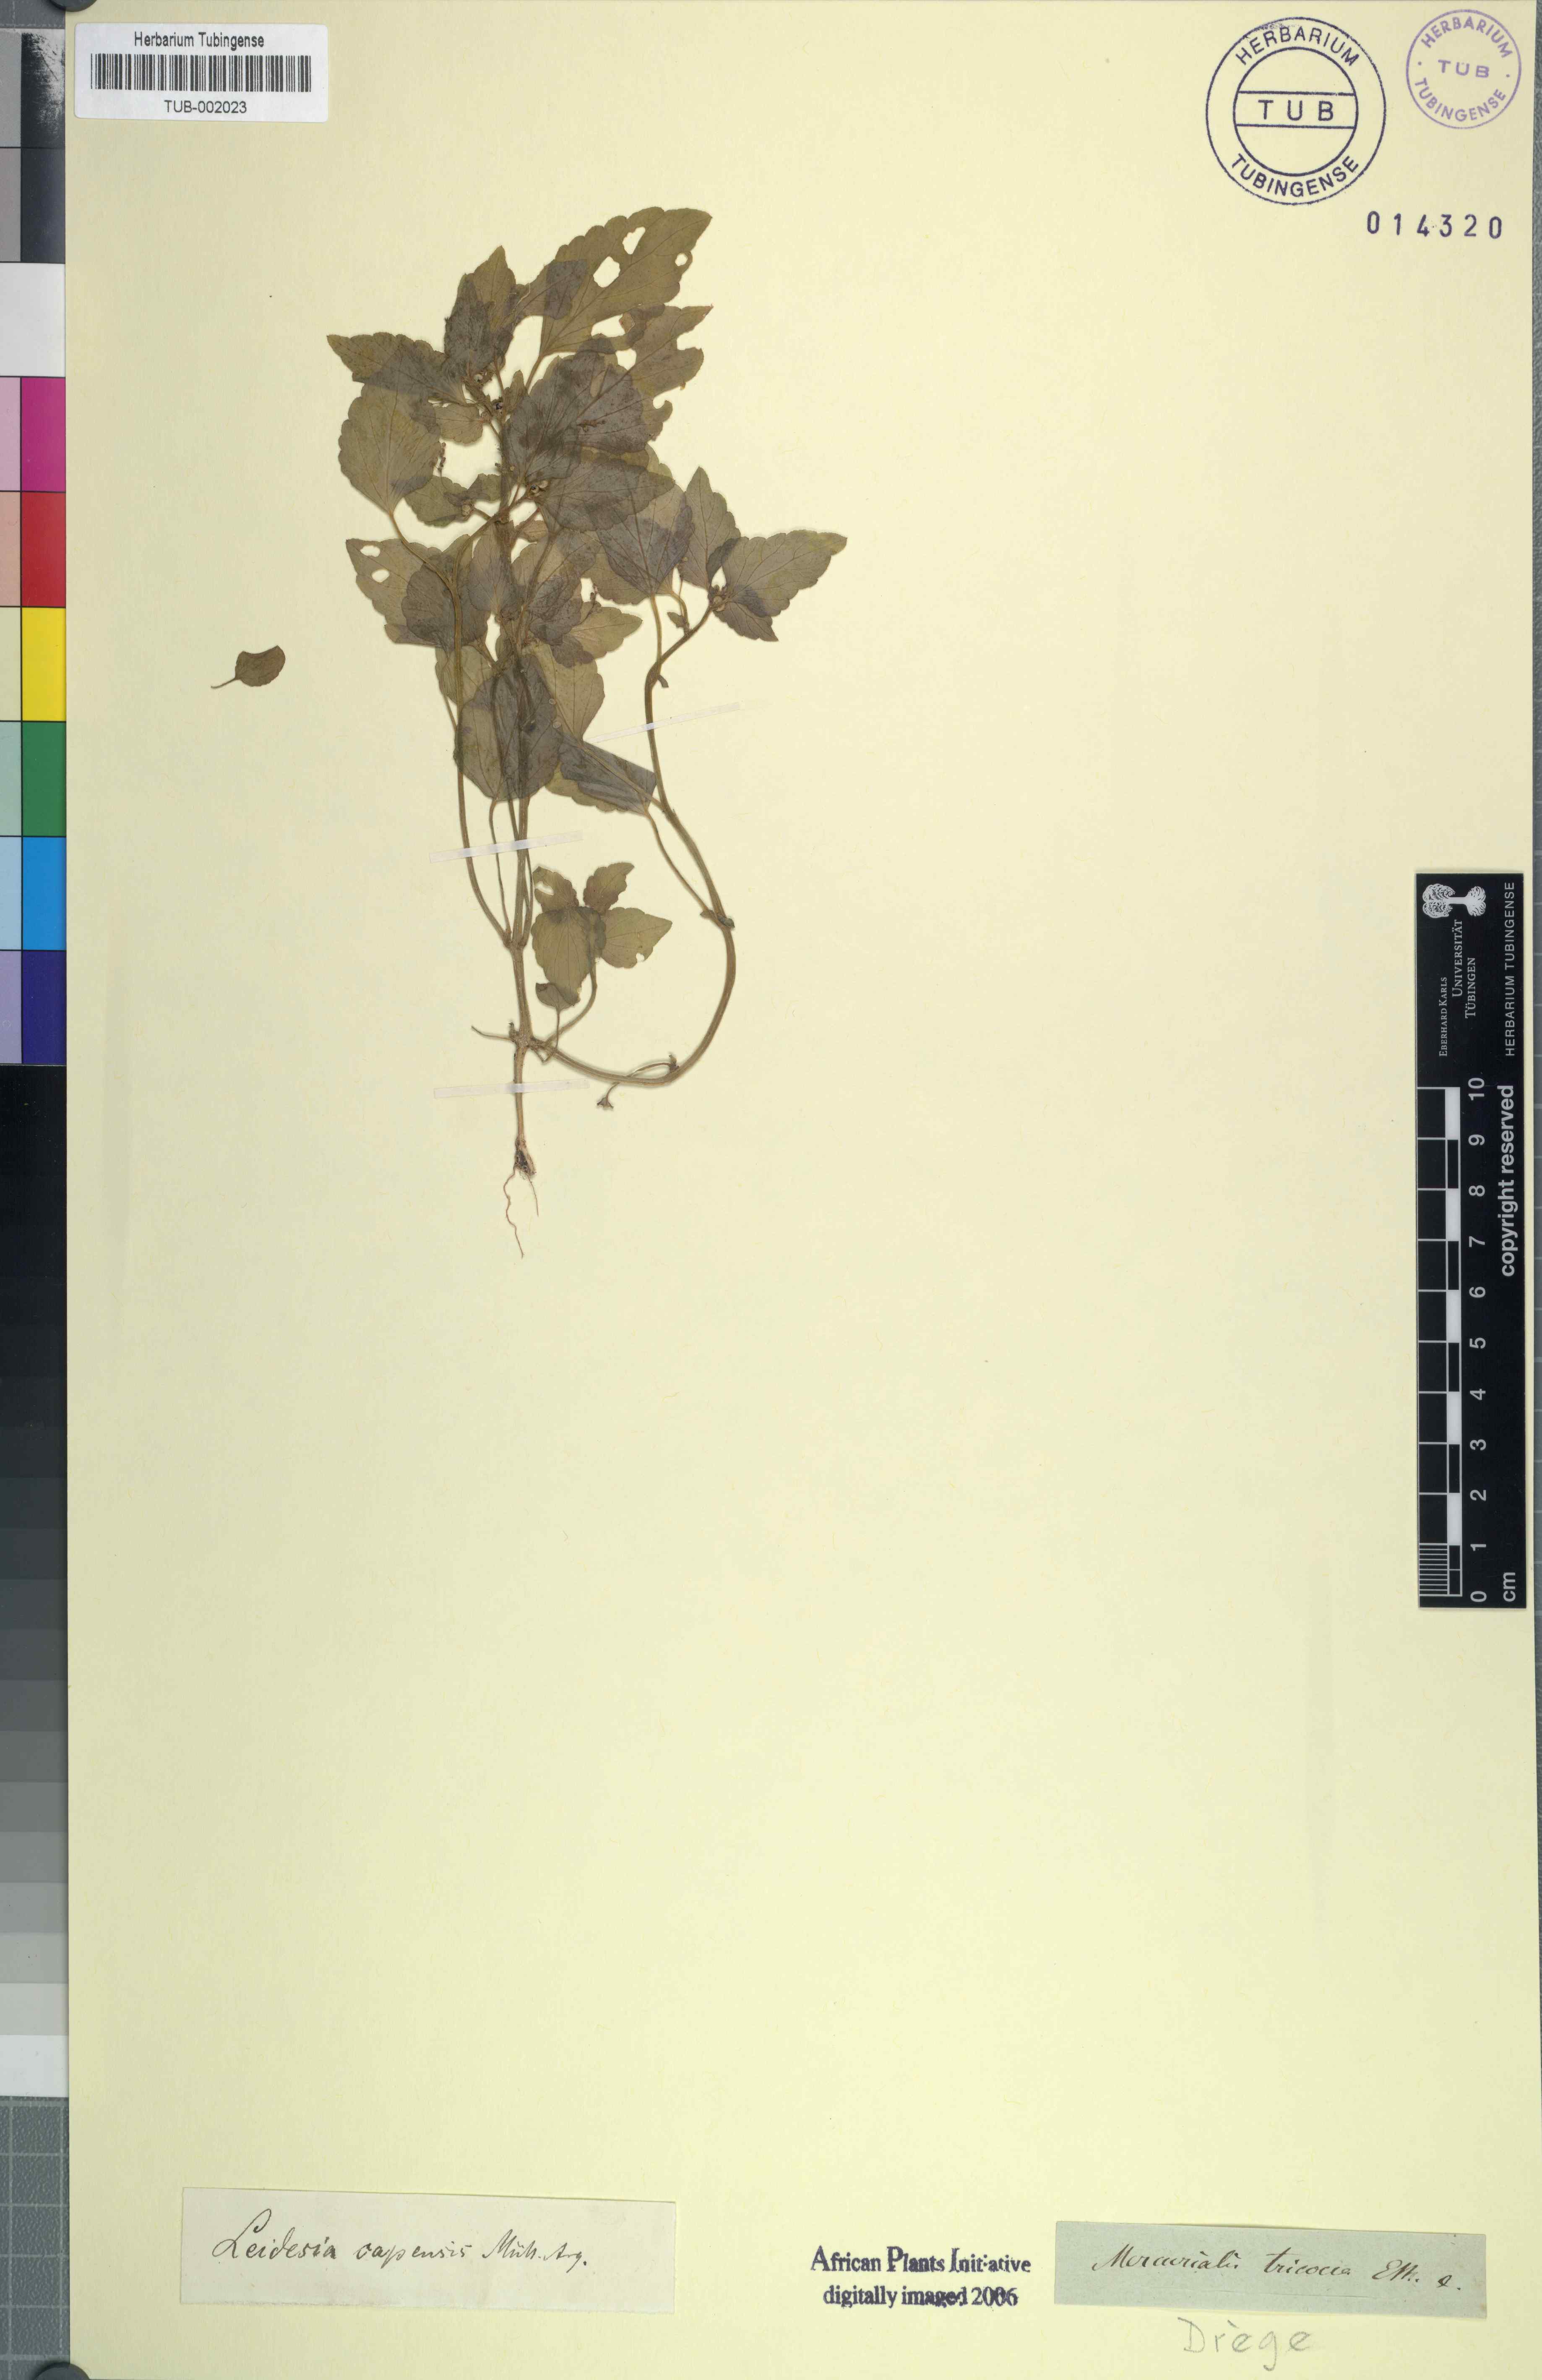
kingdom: Plantae
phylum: Tracheophyta
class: Magnoliopsida
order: Malpighiales
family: Euphorbiaceae
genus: Leidesia
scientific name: Leidesia procumbens
